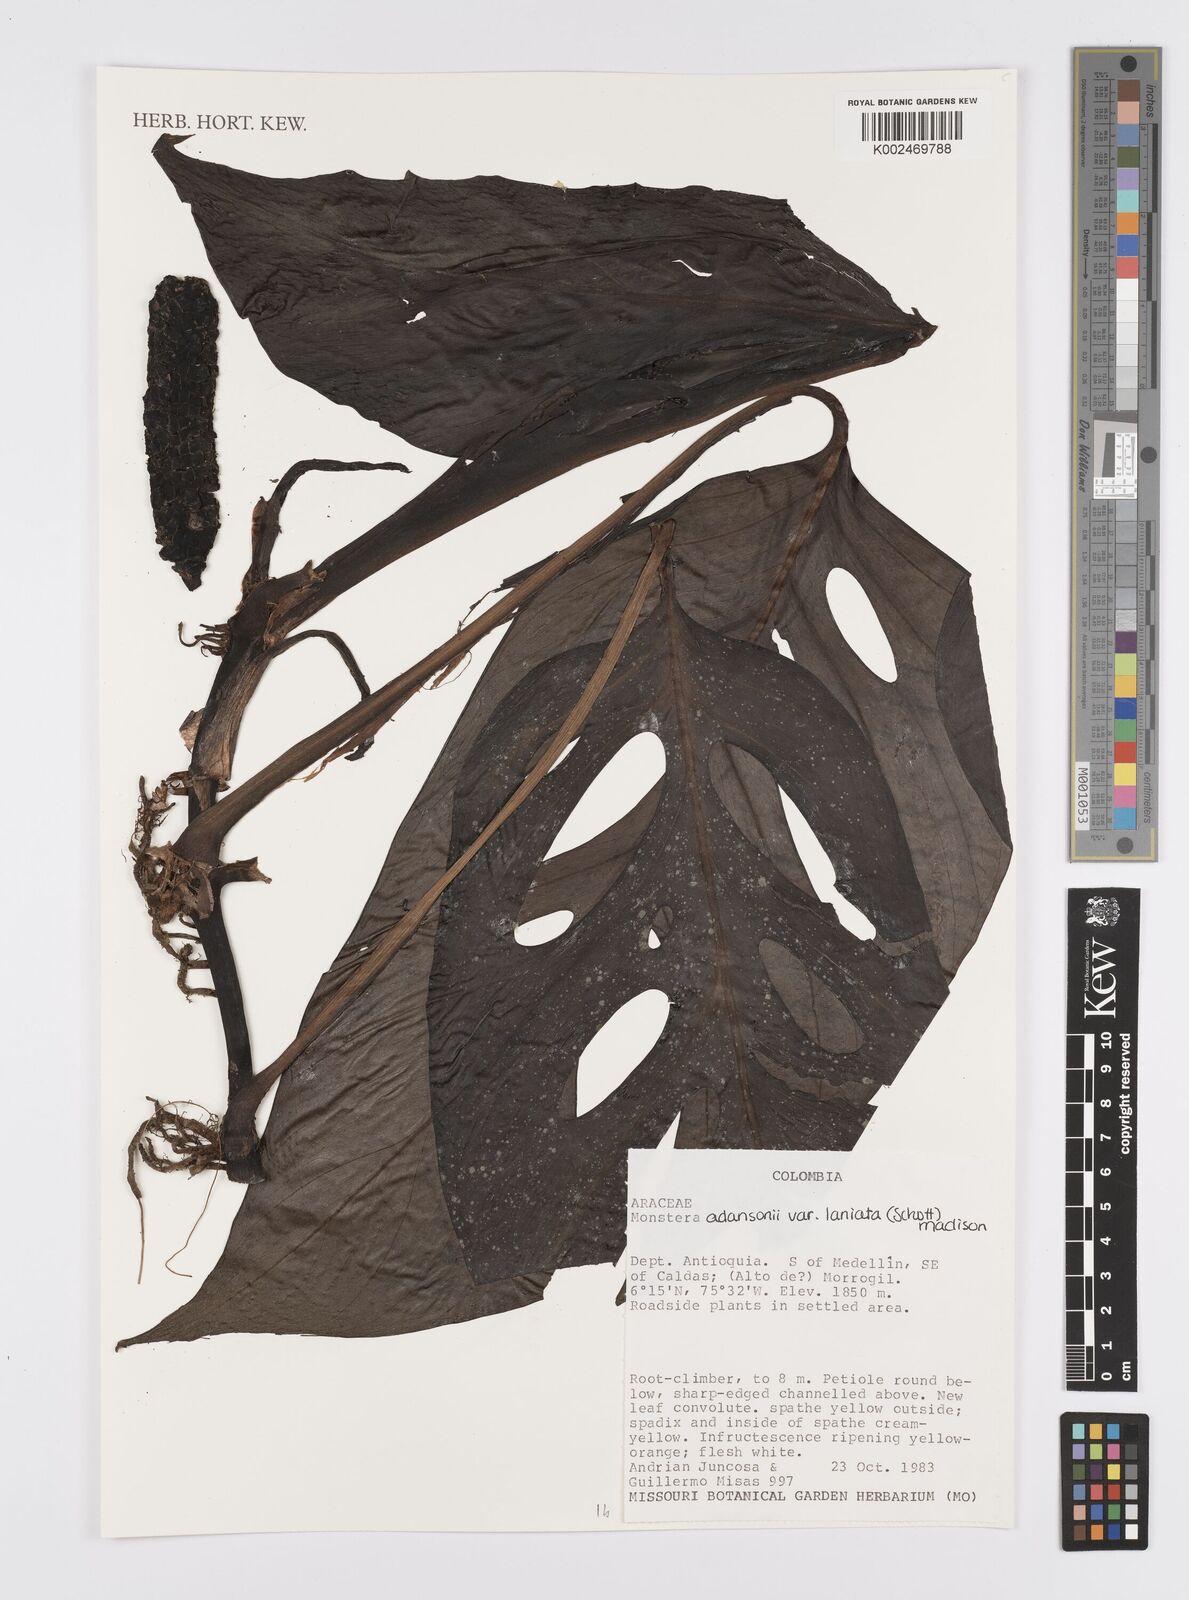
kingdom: Plantae
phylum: Tracheophyta
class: Liliopsida
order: Alismatales
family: Araceae
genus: Monstera
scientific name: Monstera adansonii
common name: Tarovine
